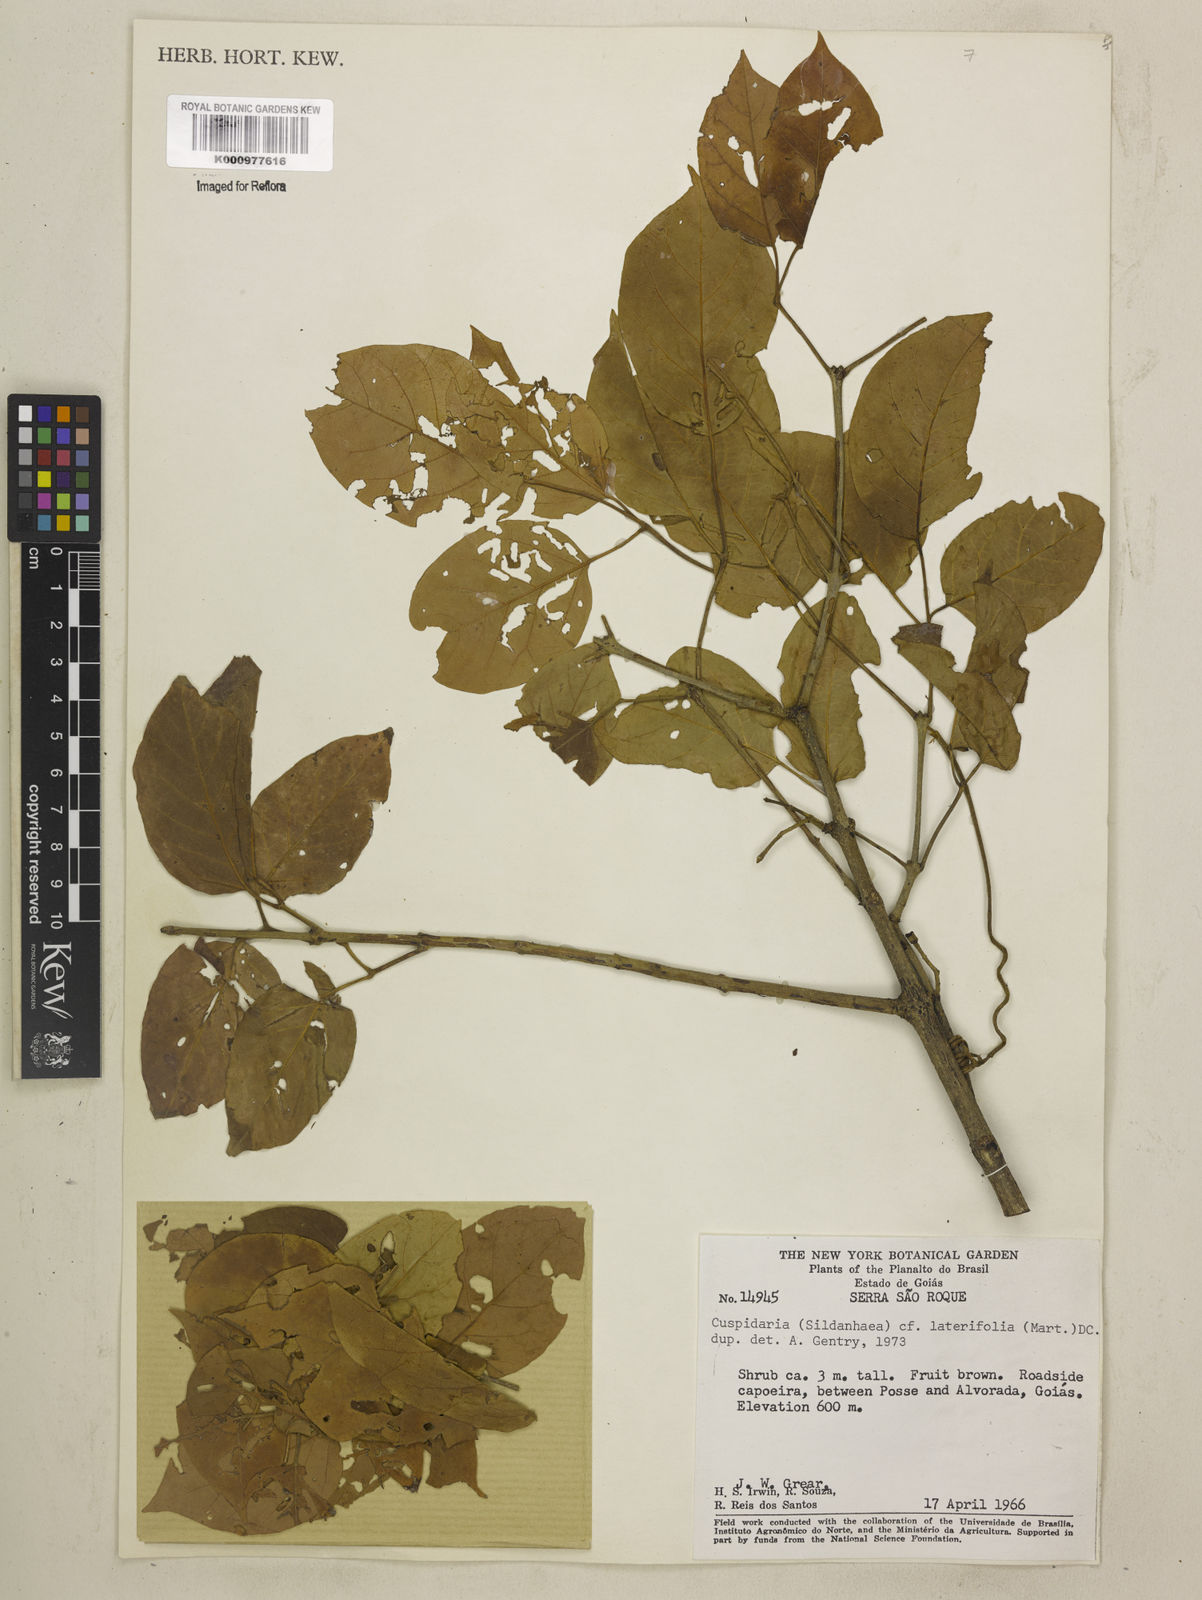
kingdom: Plantae
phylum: Tracheophyta
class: Magnoliopsida
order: Lamiales
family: Bignoniaceae
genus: Cuspidaria
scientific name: Cuspidaria lateriflora
